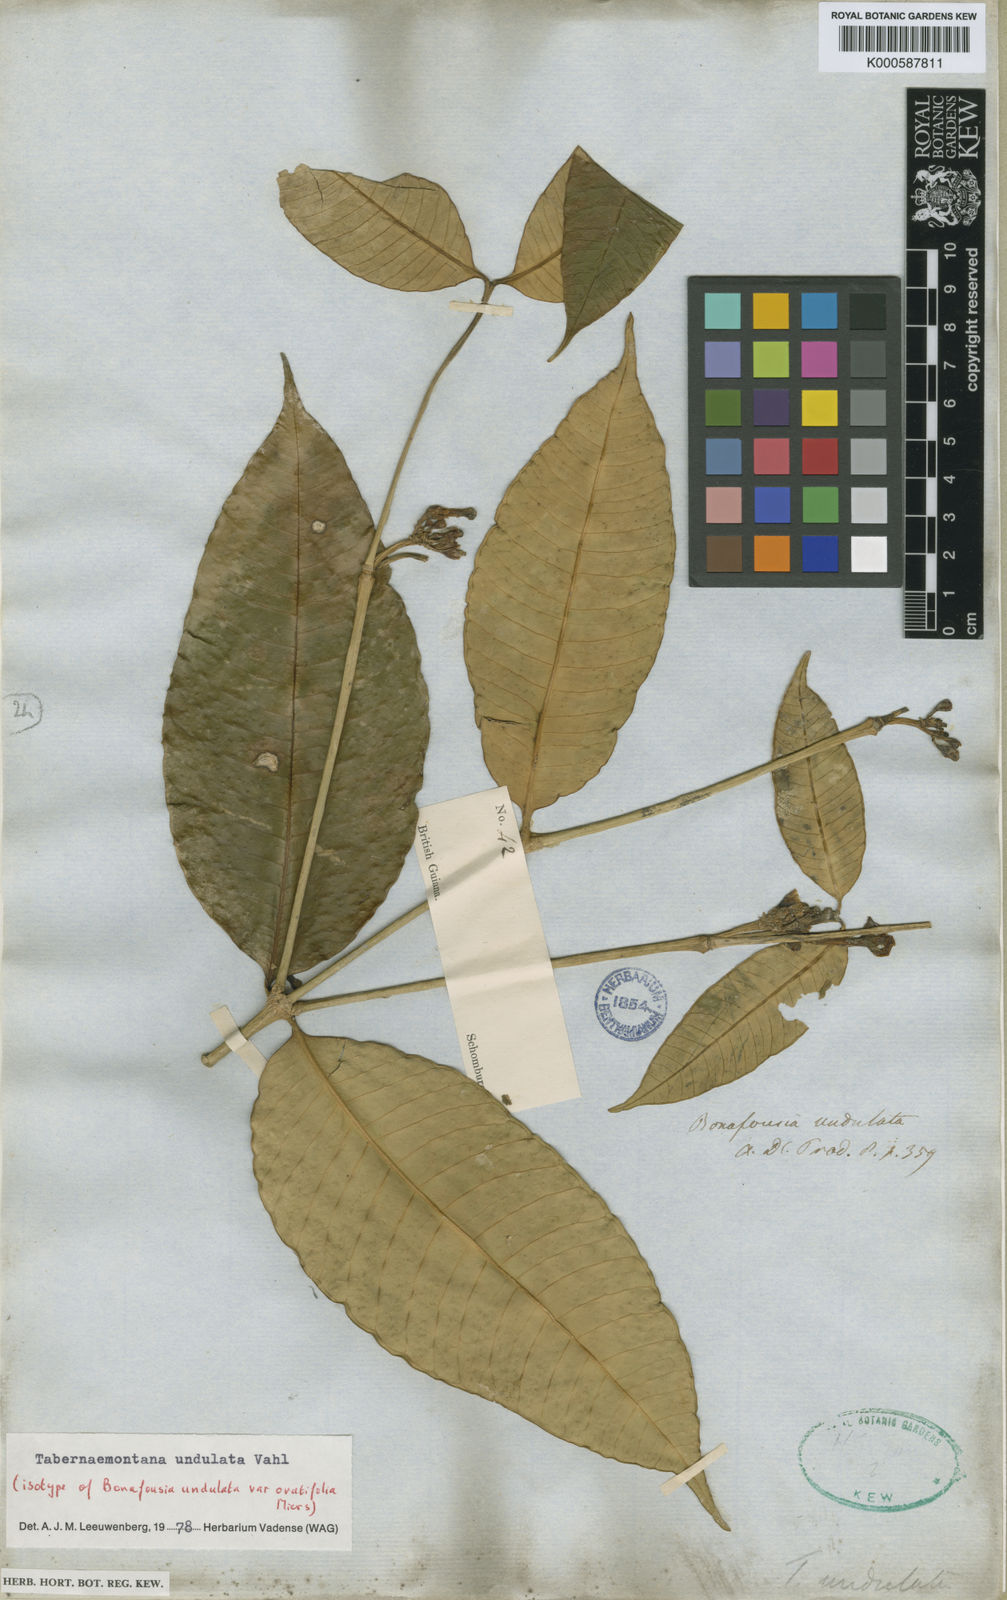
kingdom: Plantae
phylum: Tracheophyta
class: Magnoliopsida
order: Gentianales
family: Apocynaceae
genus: Tabernaemontana
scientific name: Tabernaemontana undulata
